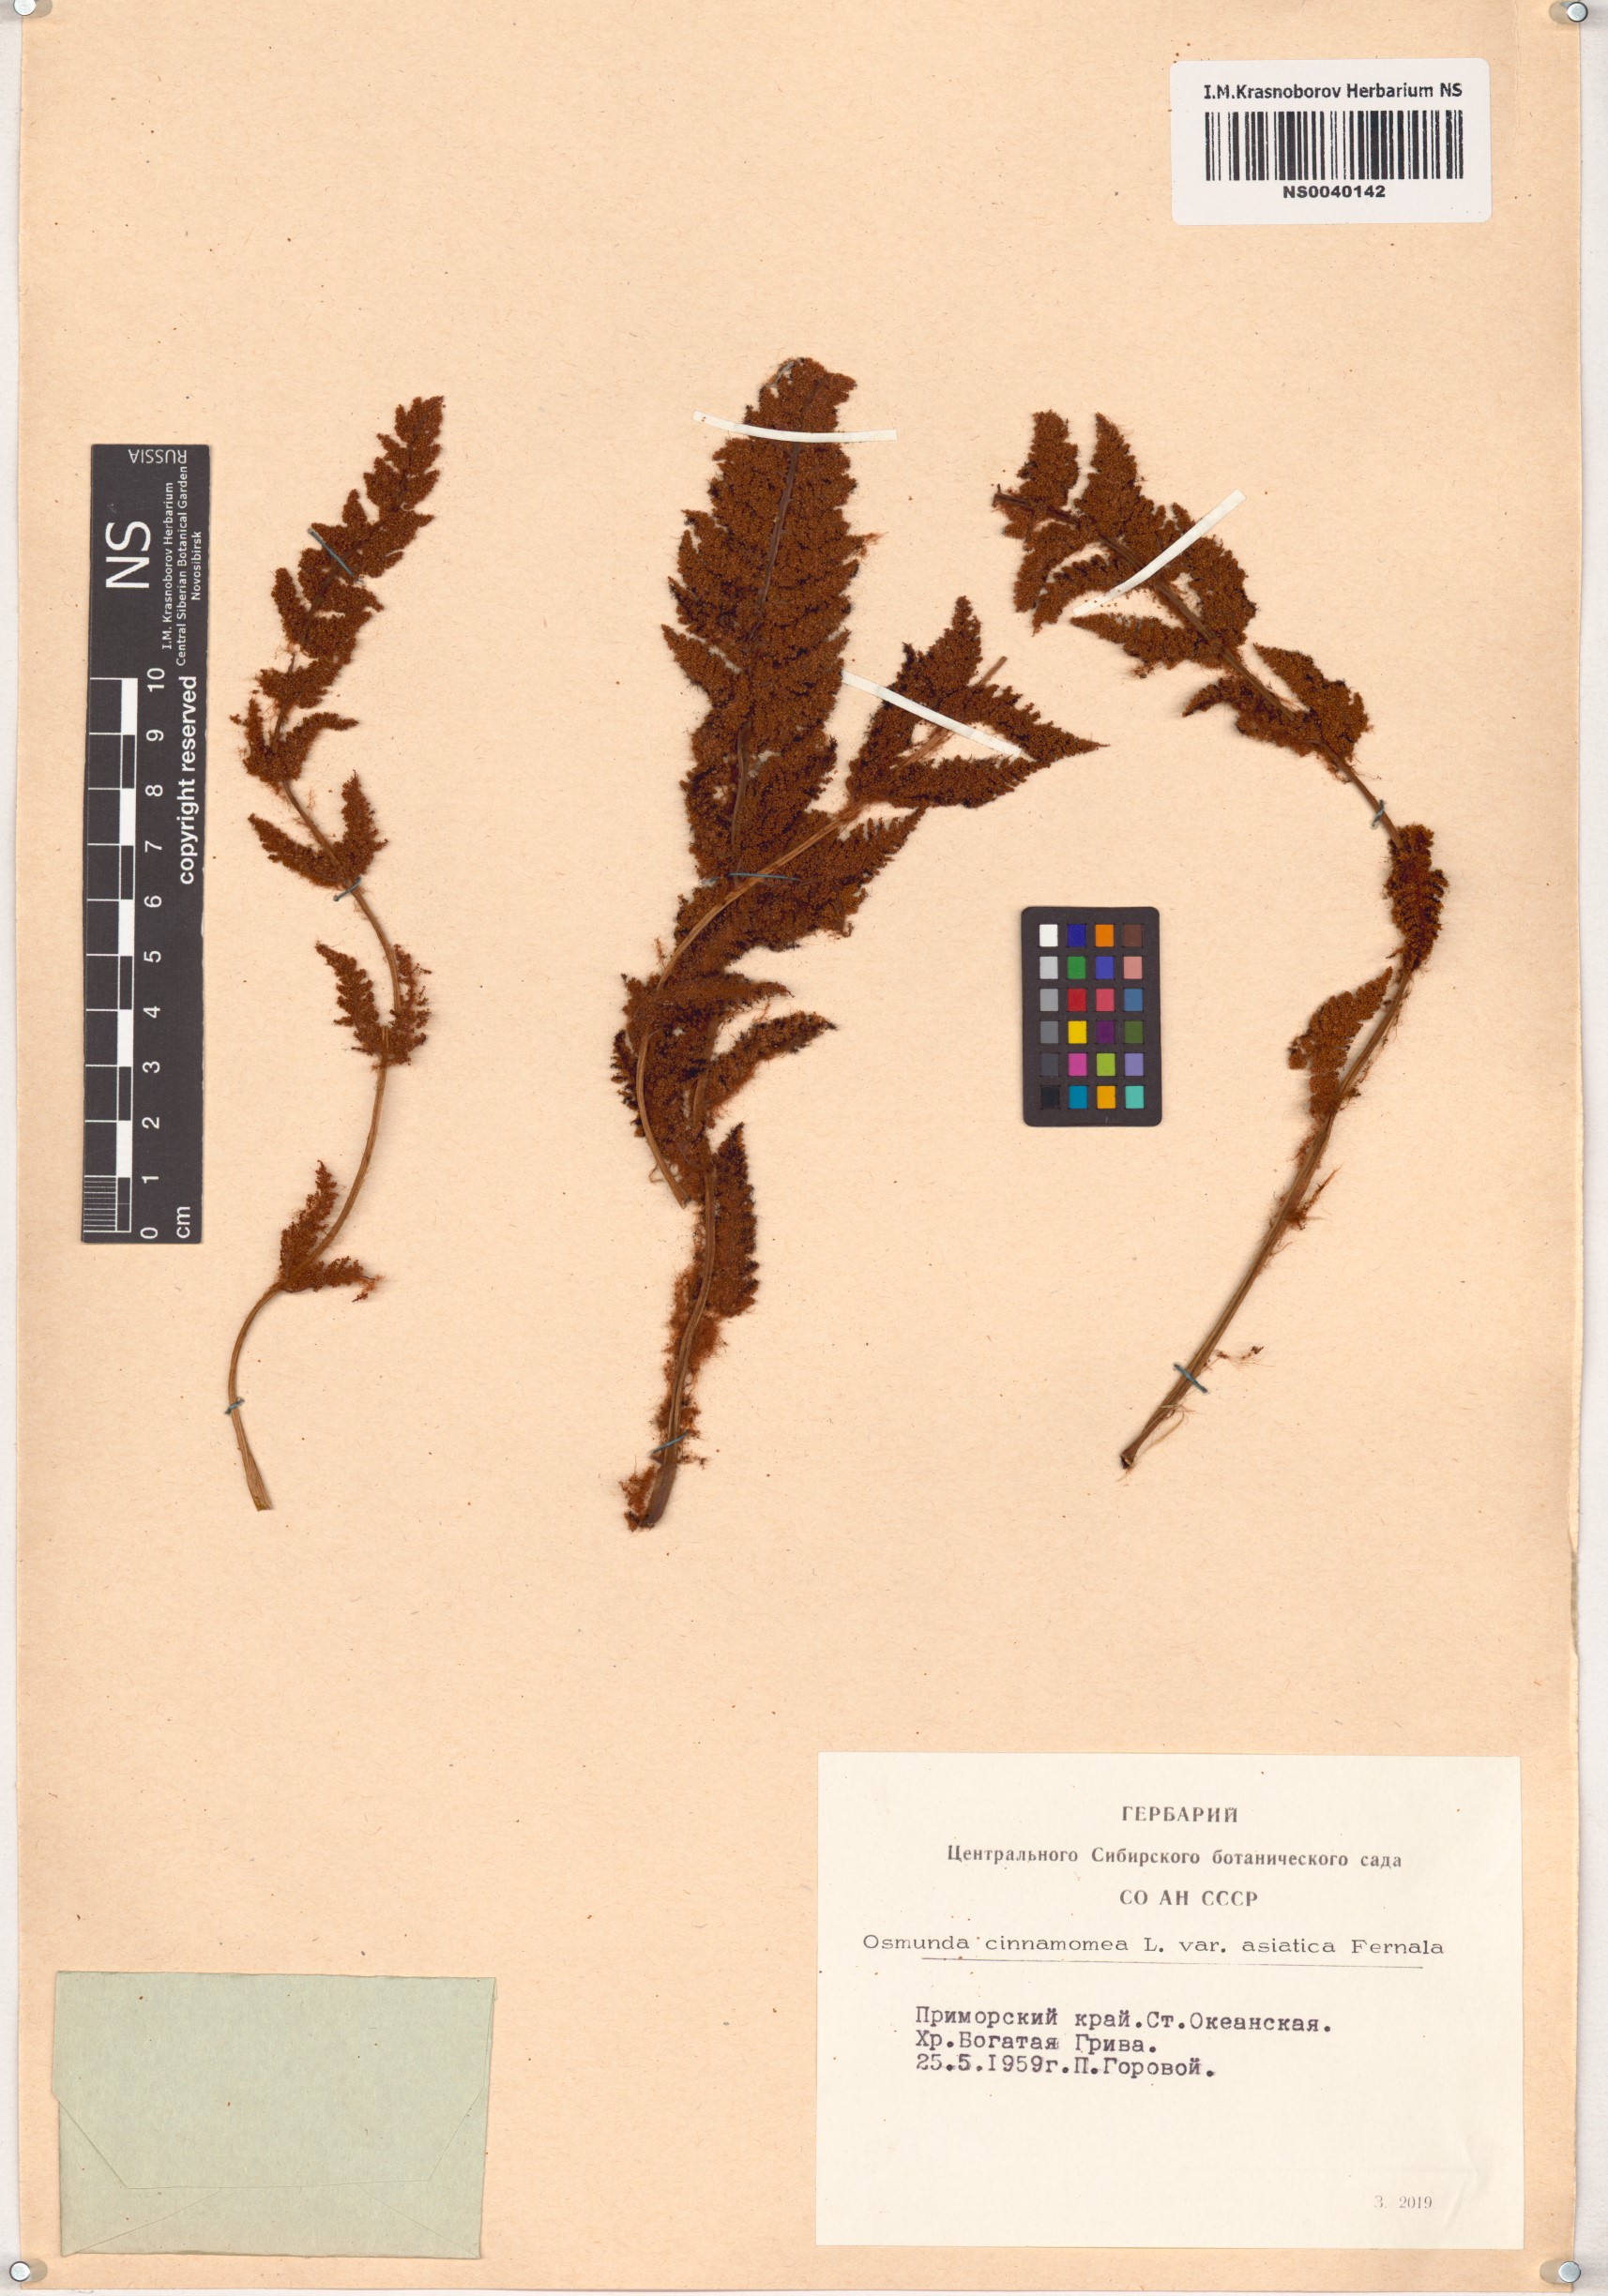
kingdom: Plantae
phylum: Tracheophyta
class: Polypodiopsida
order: Osmundales
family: Osmundaceae
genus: Osmundastrum
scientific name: Osmundastrum cinnamomeum
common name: Cinnamon fern
